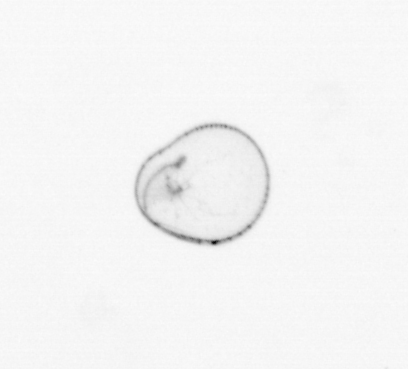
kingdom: Chromista
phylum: Myzozoa
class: Dinophyceae
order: Noctilucales
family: Noctilucaceae
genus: Noctiluca
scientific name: Noctiluca scintillans
